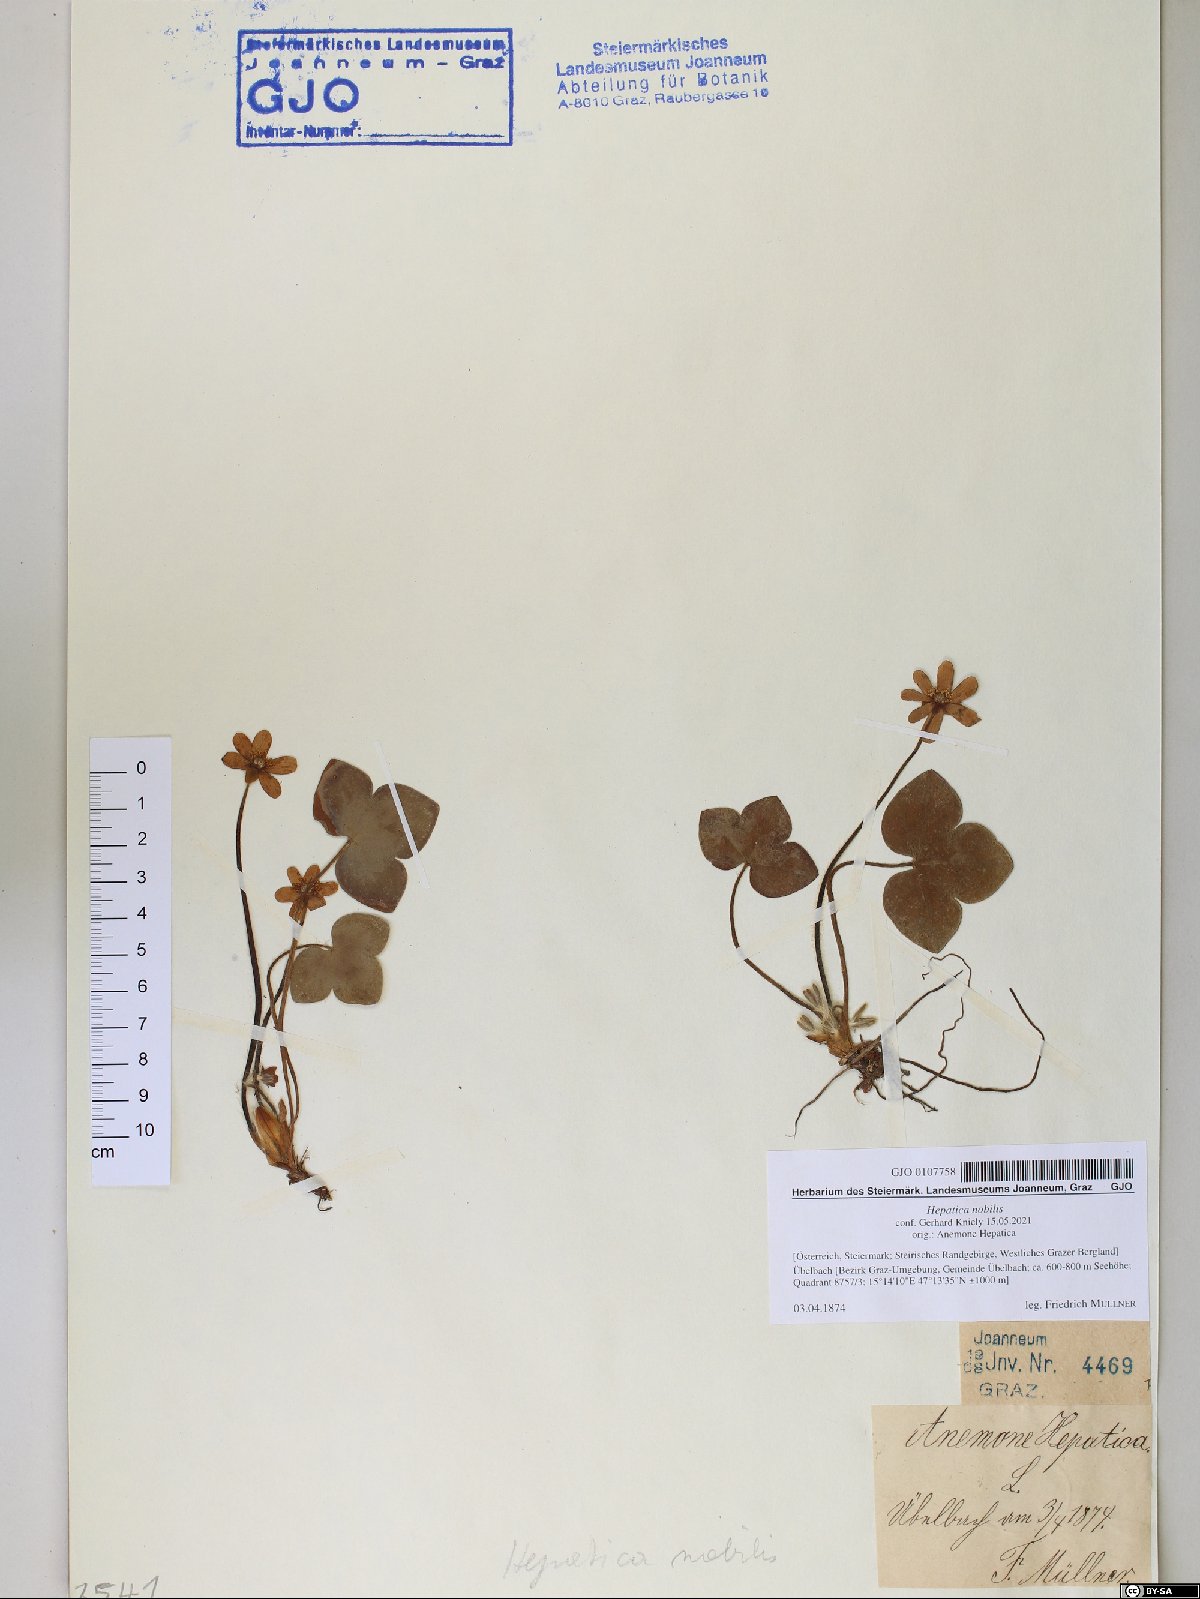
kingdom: Plantae
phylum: Tracheophyta
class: Magnoliopsida
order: Ranunculales
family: Ranunculaceae
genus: Hepatica
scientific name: Hepatica nobilis
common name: Liverleaf
